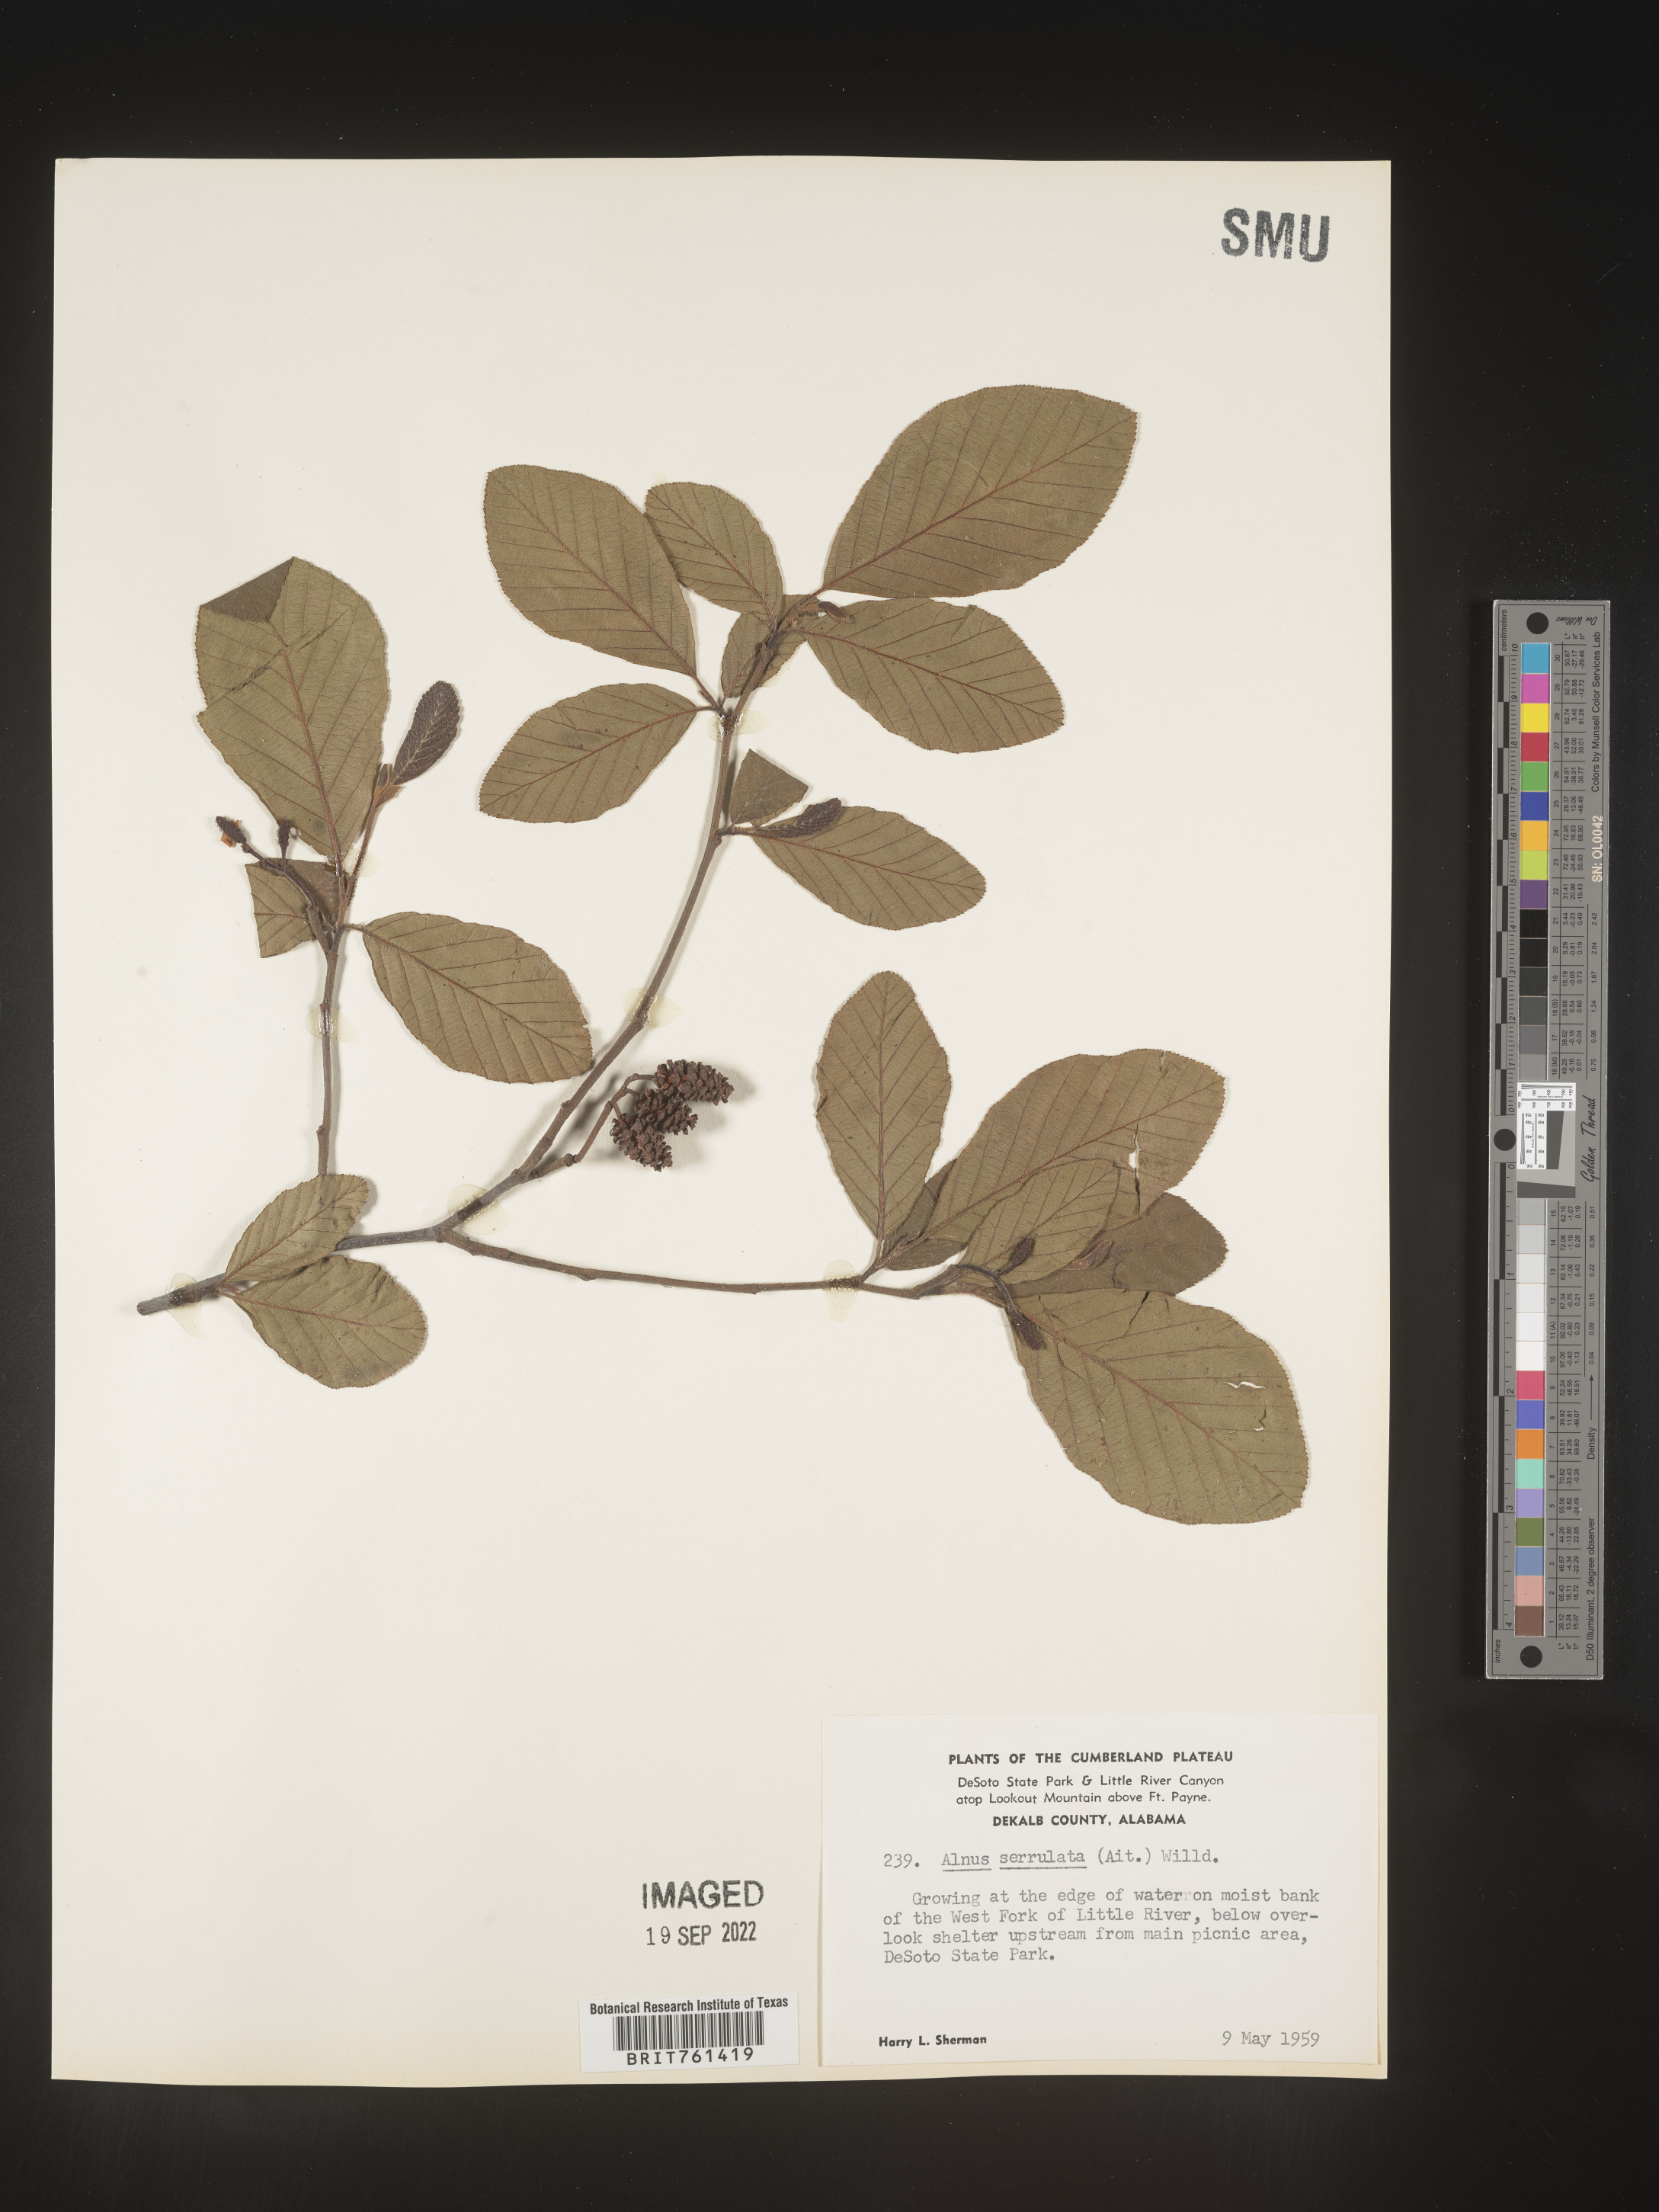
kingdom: Plantae
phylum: Tracheophyta
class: Magnoliopsida
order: Fagales
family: Betulaceae
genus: Alnus
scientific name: Alnus serrulata
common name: Hazel alder
